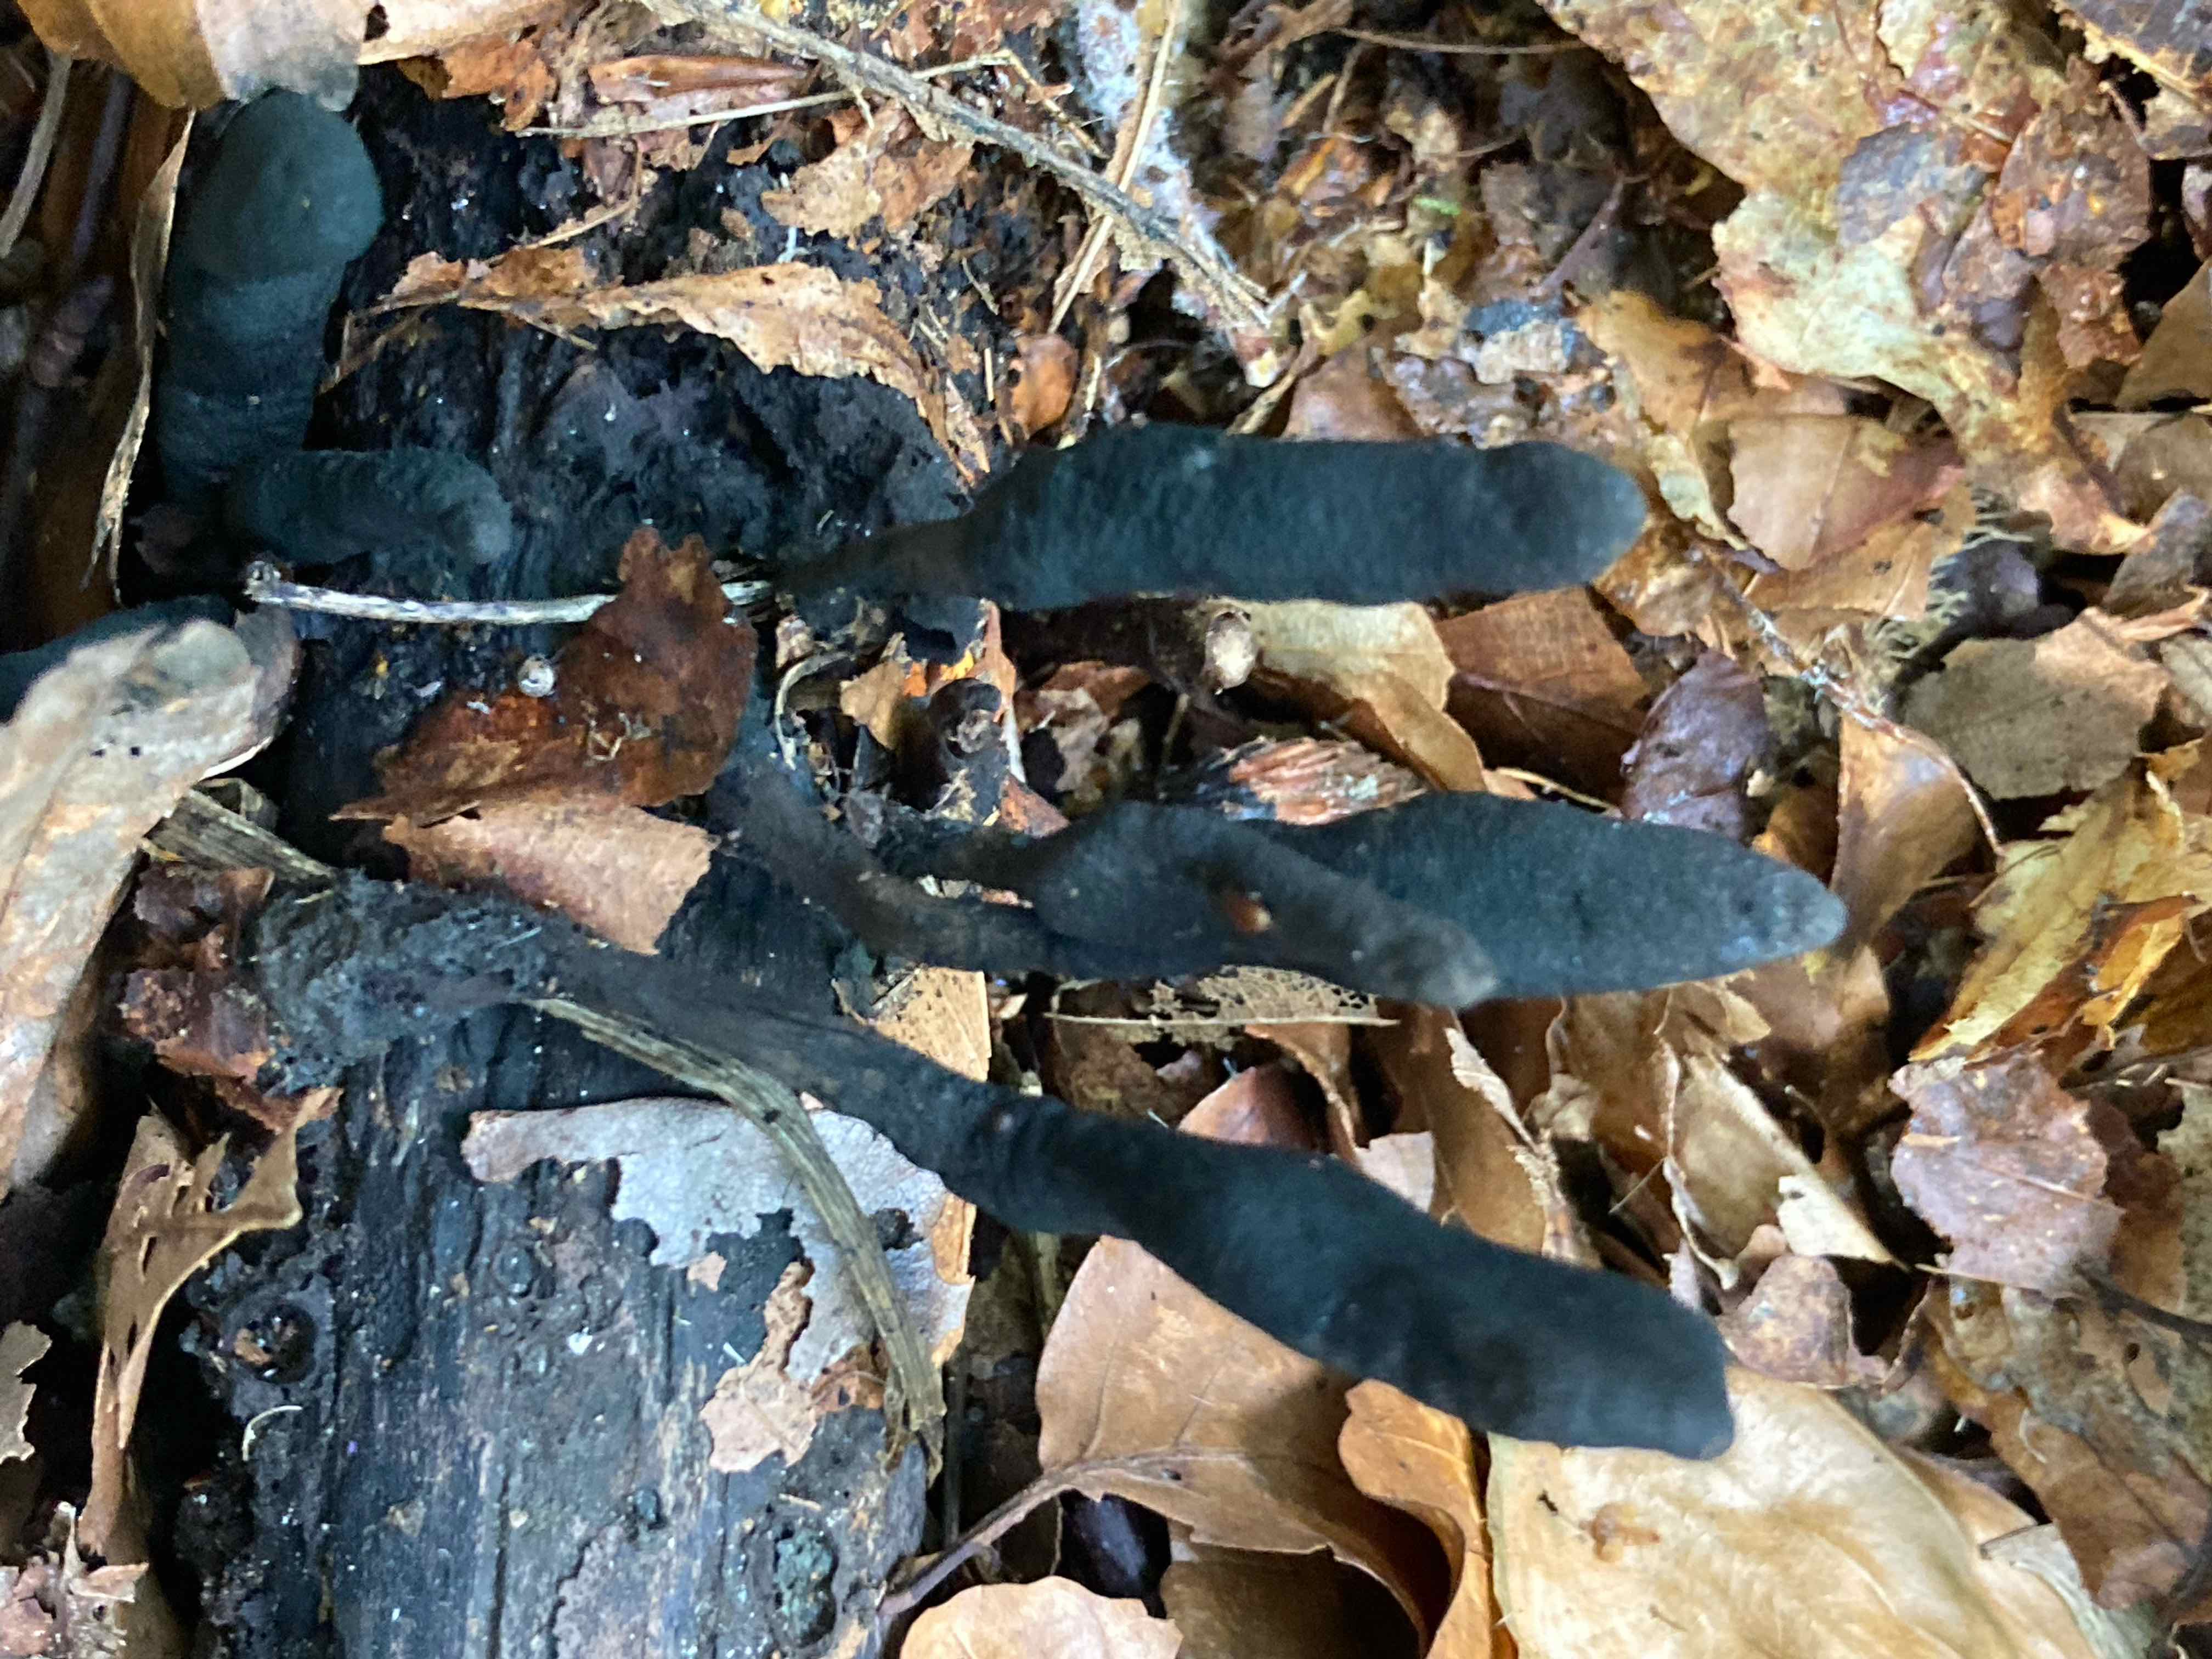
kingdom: Fungi
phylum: Ascomycota
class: Sordariomycetes
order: Xylariales
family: Xylariaceae
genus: Xylaria
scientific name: Xylaria longipes
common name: slank stødsvamp
